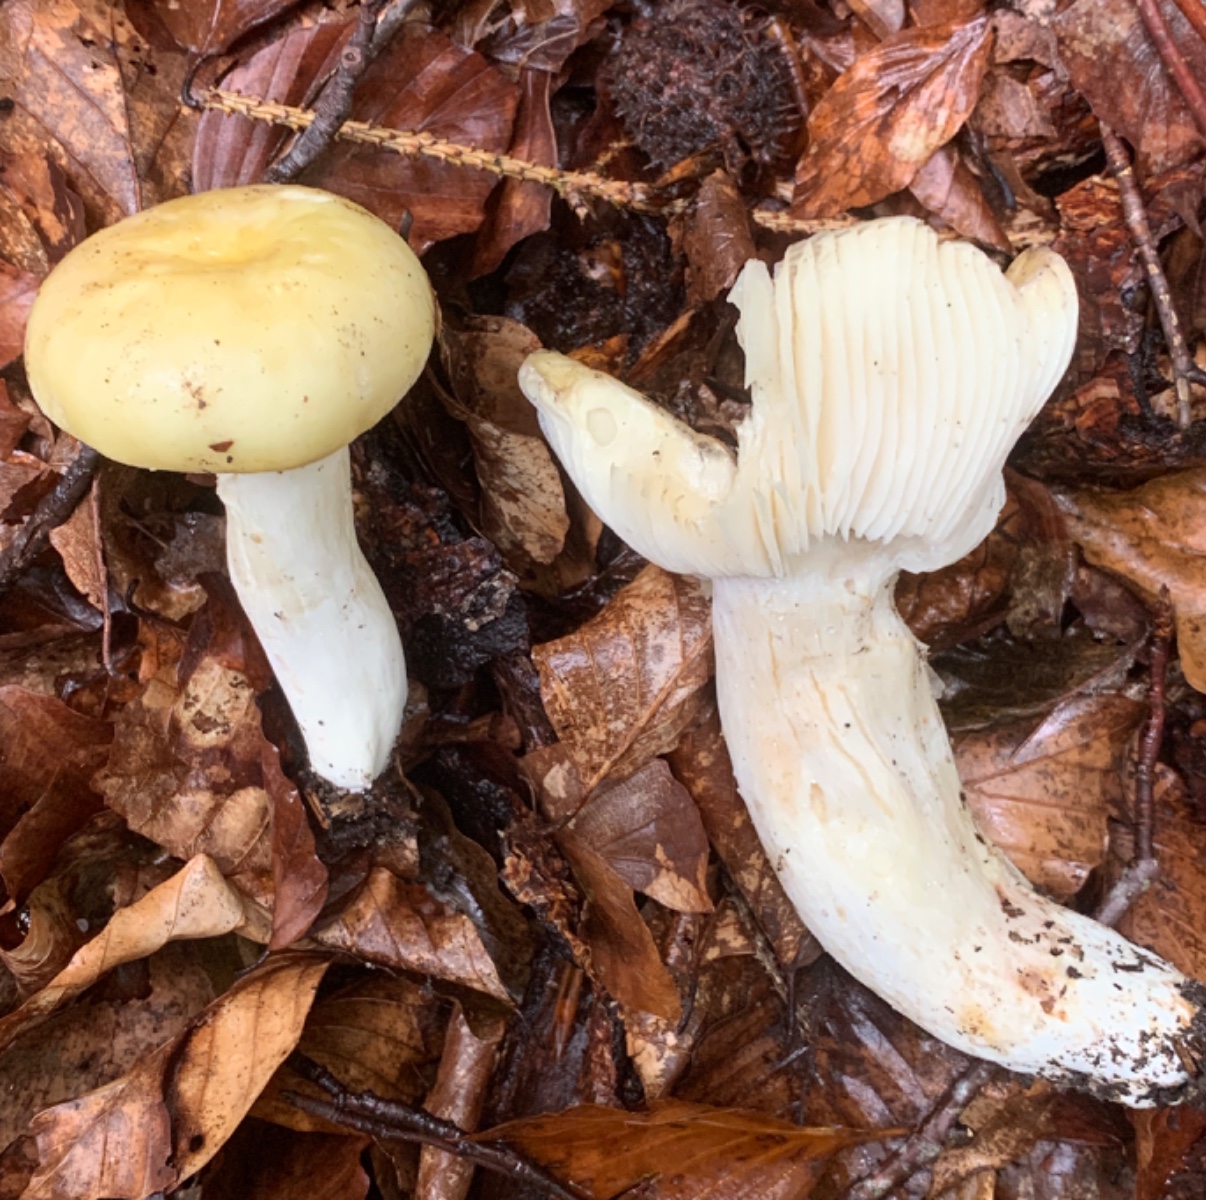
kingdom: Fungi
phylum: Basidiomycota
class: Agaricomycetes
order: Russulales
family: Russulaceae
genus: Russula
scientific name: Russula ochroleuca
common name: okkergul skørhat
